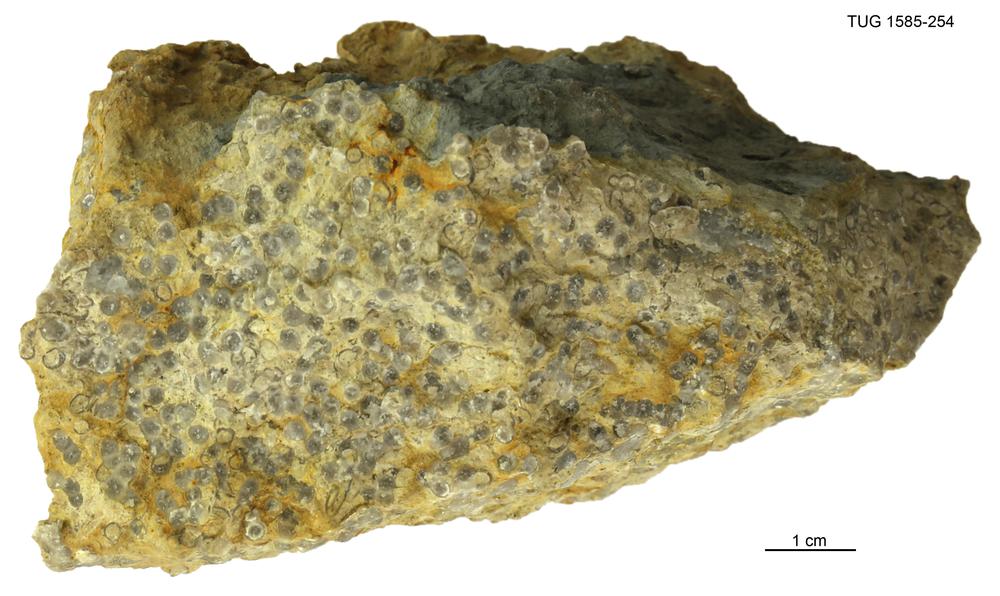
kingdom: Animalia
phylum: Cnidaria
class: Anthozoa
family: Auloporidae
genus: Eofletcheria
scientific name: Eofletcheria orvikui
